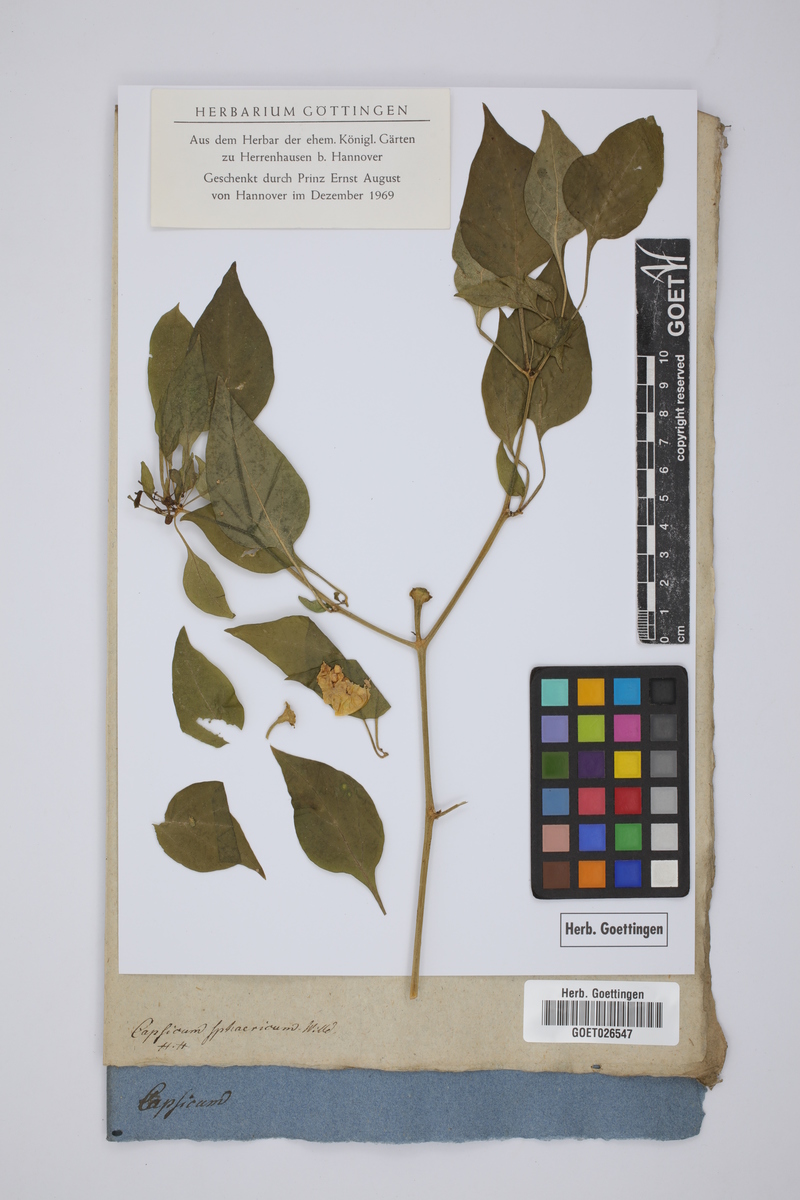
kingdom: Plantae
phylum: Tracheophyta
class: Magnoliopsida
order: Solanales
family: Solanaceae
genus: Capsicum
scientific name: Capsicum annuum
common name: Sweet pepper
